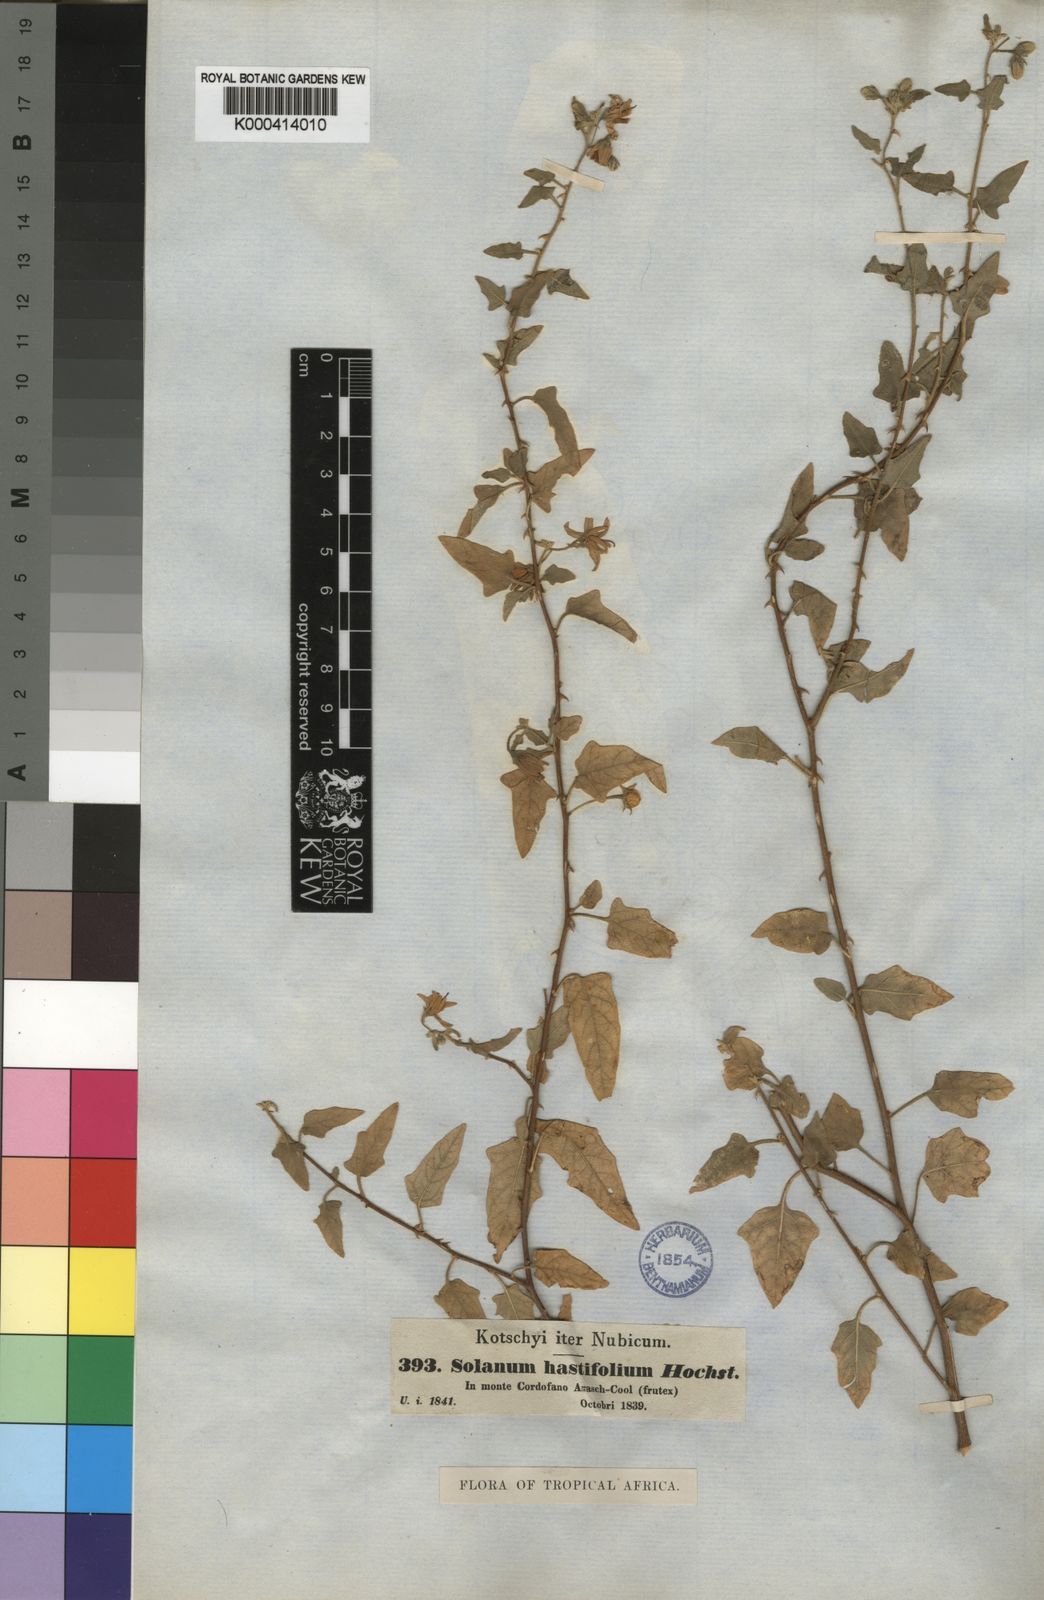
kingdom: Plantae
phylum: Tracheophyta
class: Magnoliopsida
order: Solanales
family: Solanaceae
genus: Solanum
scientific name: Solanum hastifolium
